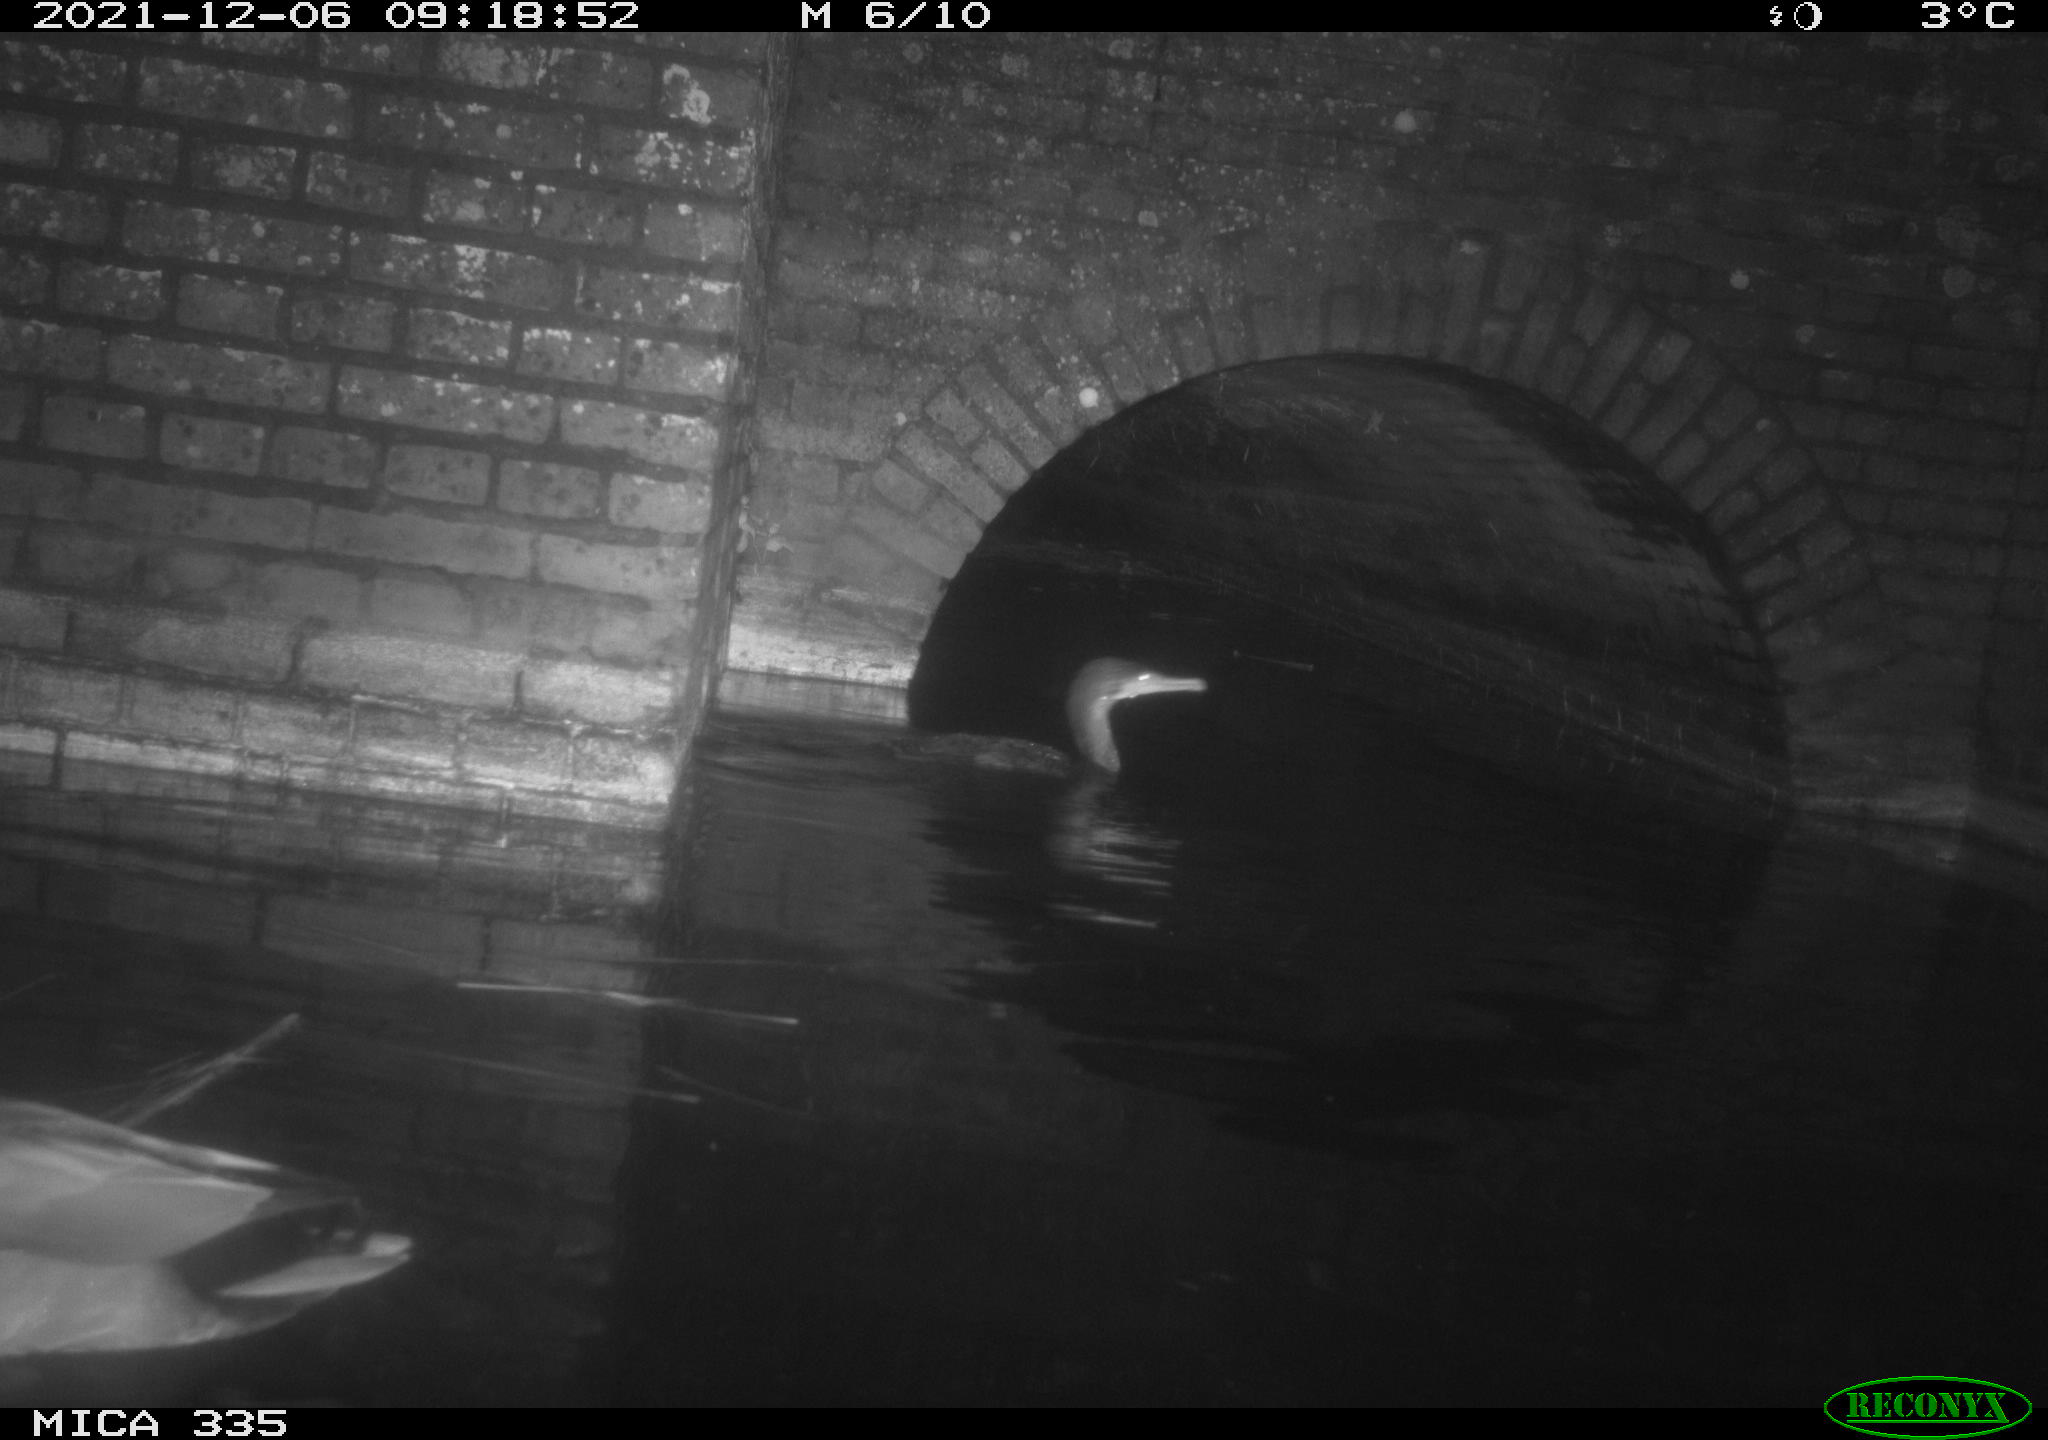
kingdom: Animalia
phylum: Chordata
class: Aves
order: Suliformes
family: Phalacrocoracidae
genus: Phalacrocorax
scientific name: Phalacrocorax carbo
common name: Great cormorant
